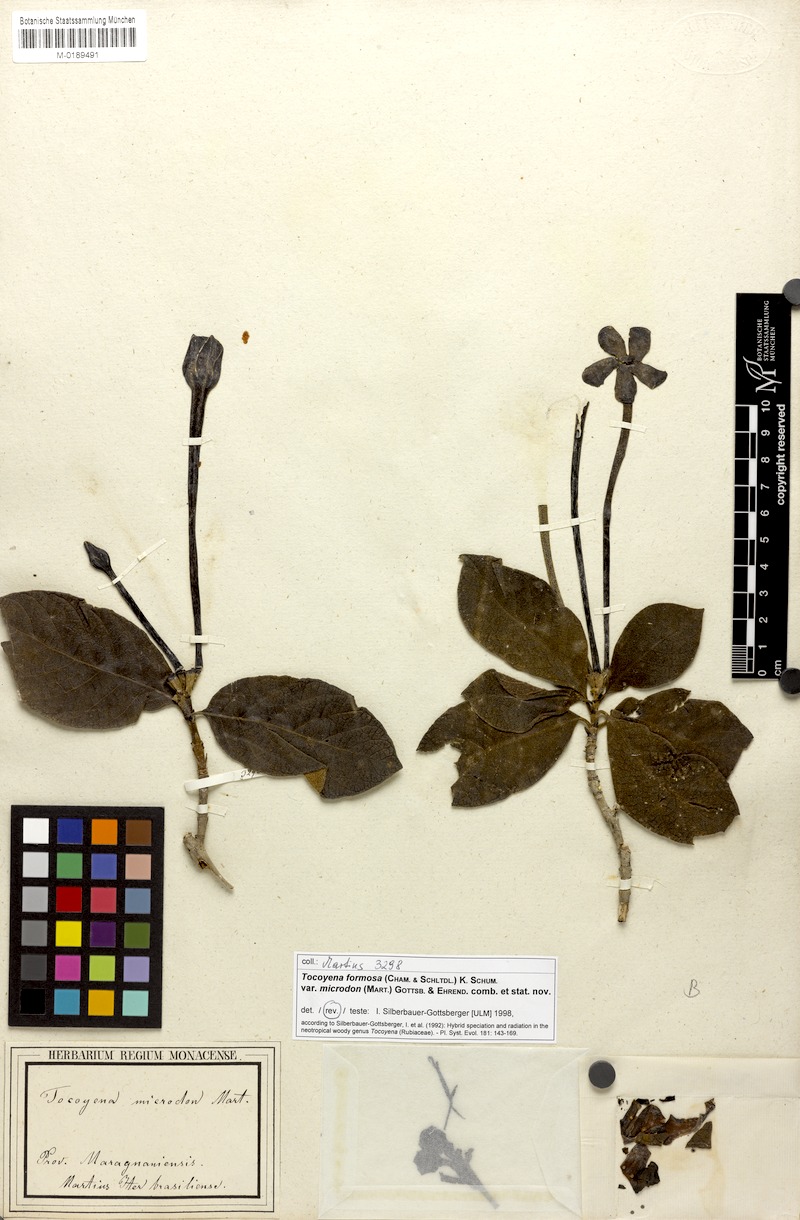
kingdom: Plantae
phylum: Tracheophyta
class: Magnoliopsida
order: Gentianales
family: Rubiaceae
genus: Tocoyena
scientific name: Tocoyena formosa
